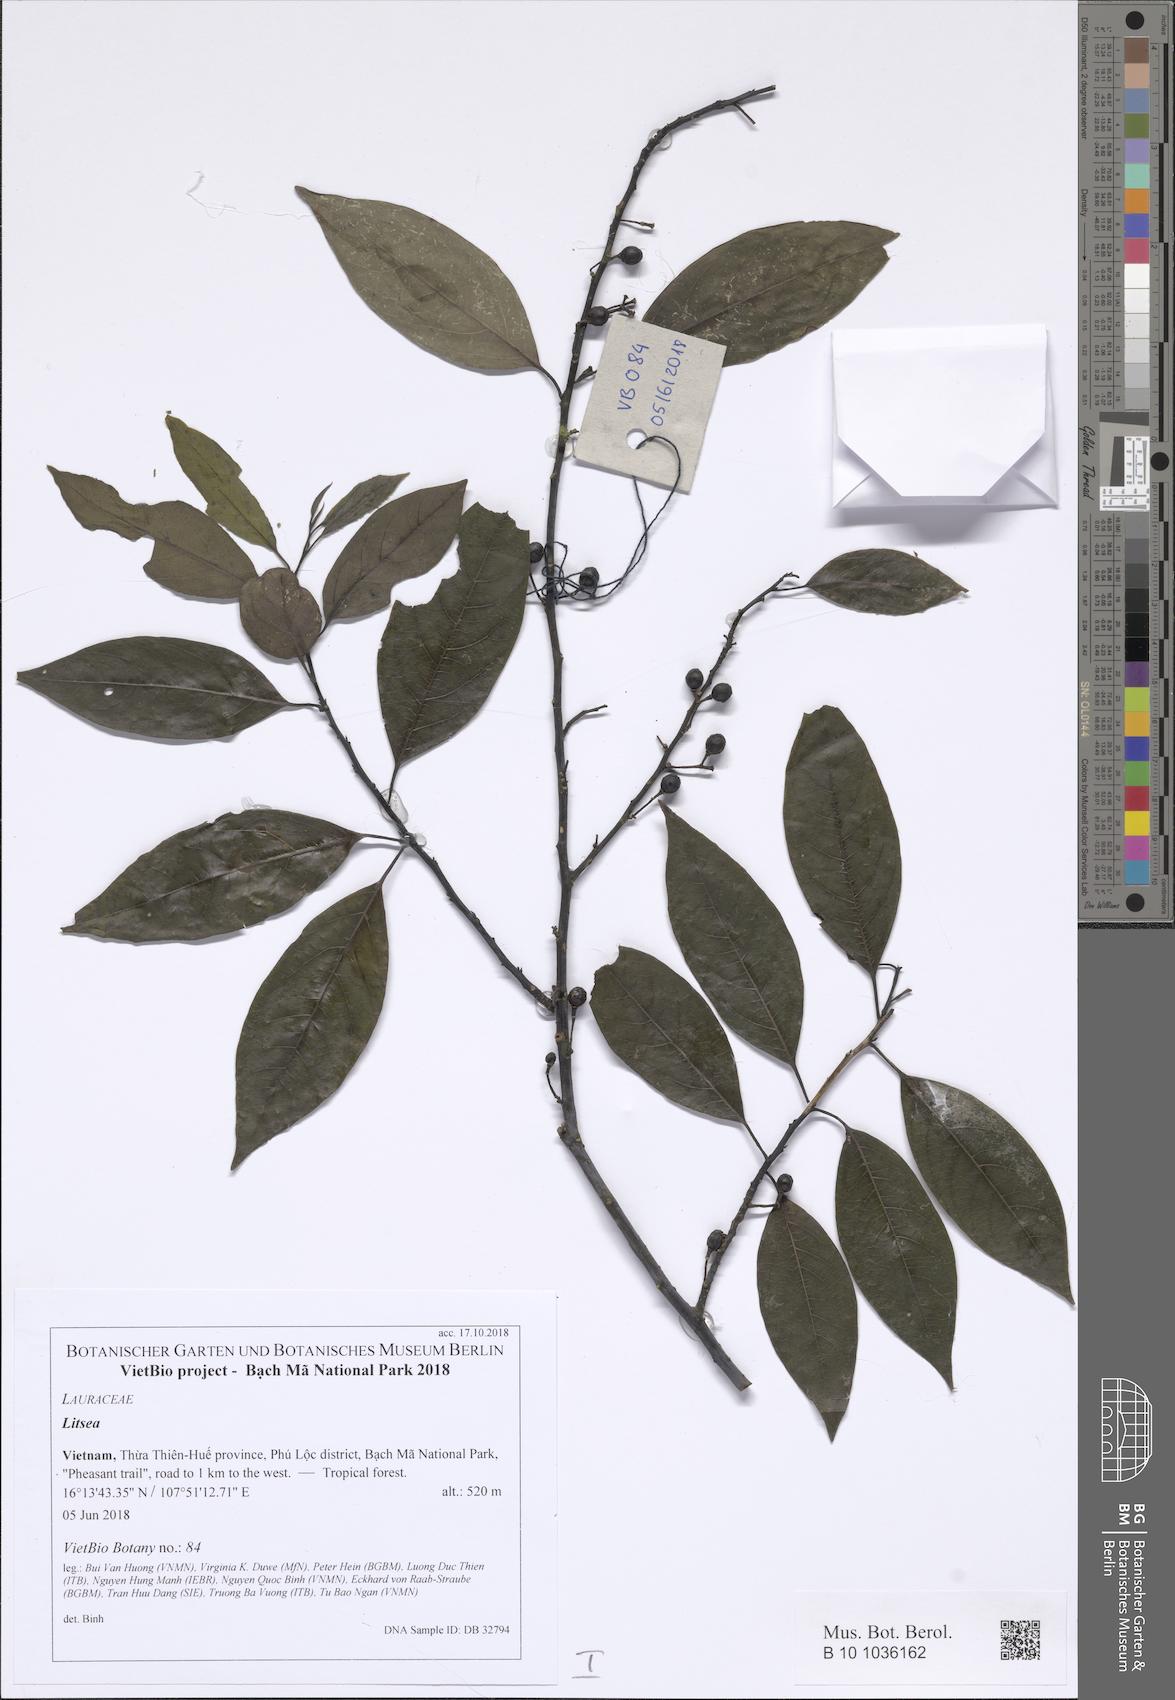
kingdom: Plantae
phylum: Tracheophyta
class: Magnoliopsida
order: Laurales
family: Lauraceae
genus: Litsea
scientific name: Litsea cubeba
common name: Mountain-pepper
